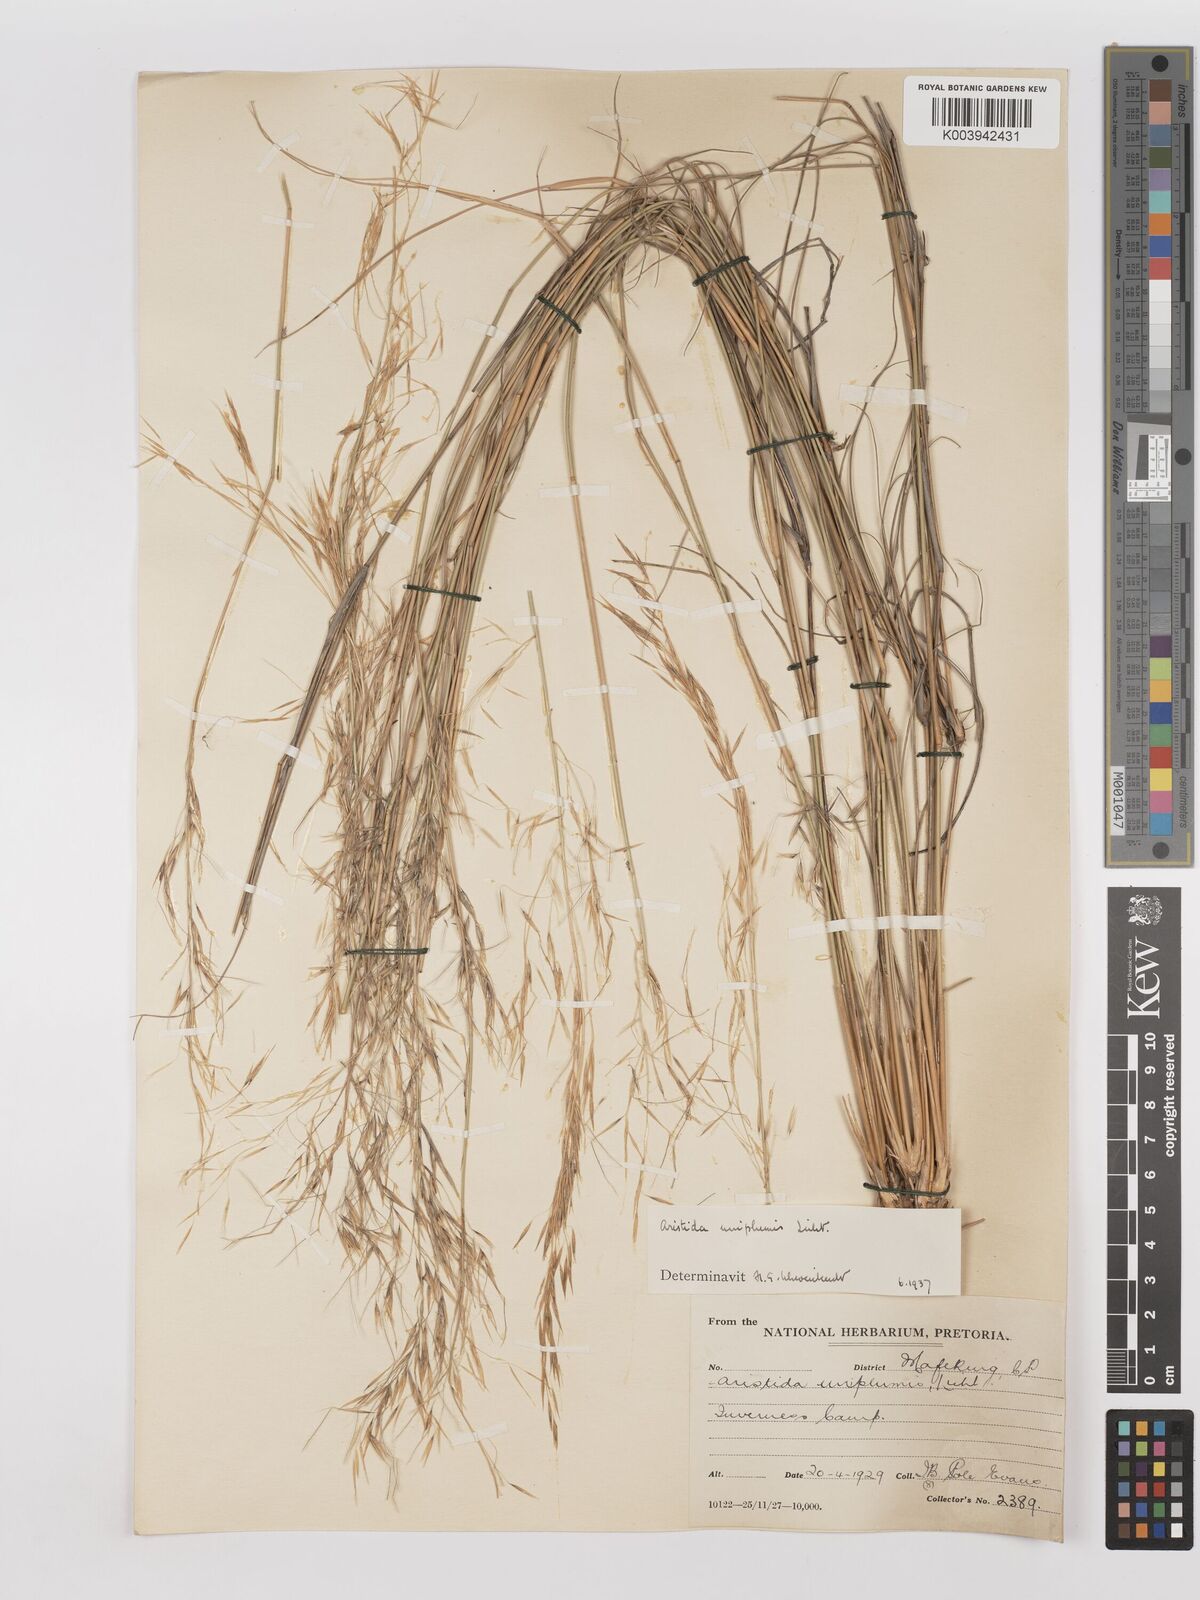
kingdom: Plantae
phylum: Tracheophyta
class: Liliopsida
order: Poales
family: Poaceae
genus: Stipagrostis
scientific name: Stipagrostis uniplumis
